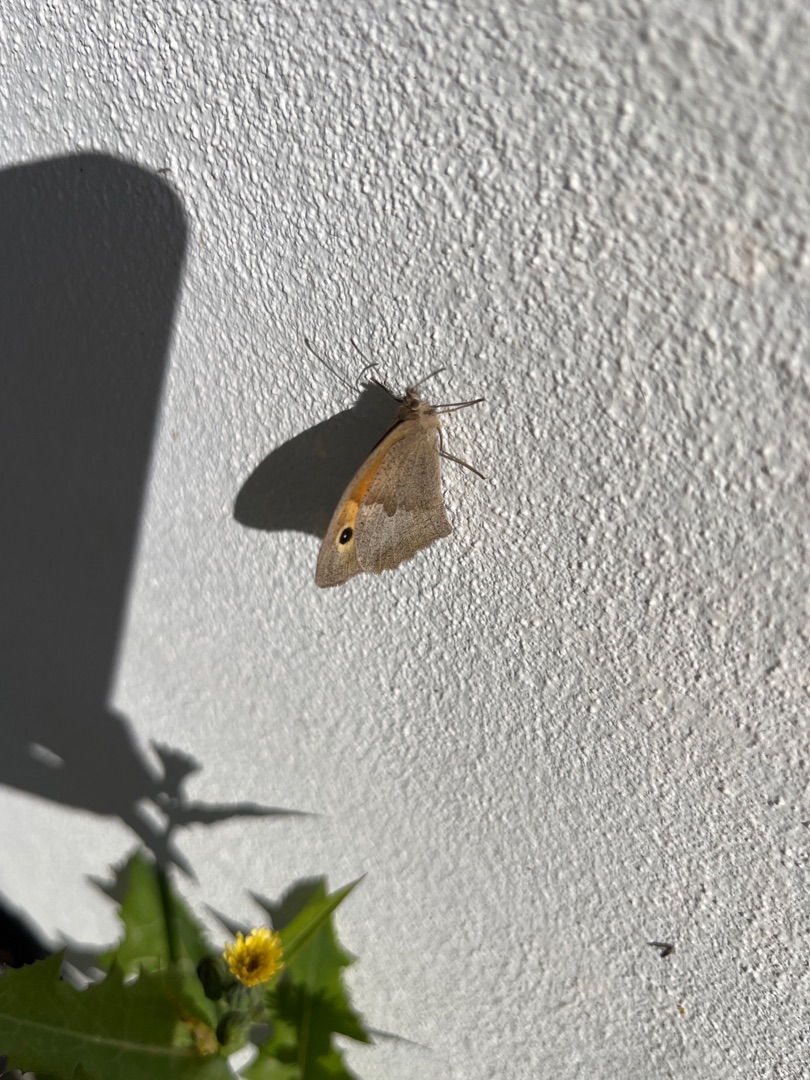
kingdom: Animalia
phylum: Arthropoda
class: Insecta
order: Lepidoptera
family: Nymphalidae
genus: Maniola
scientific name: Maniola jurtina
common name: Græsrandøje
